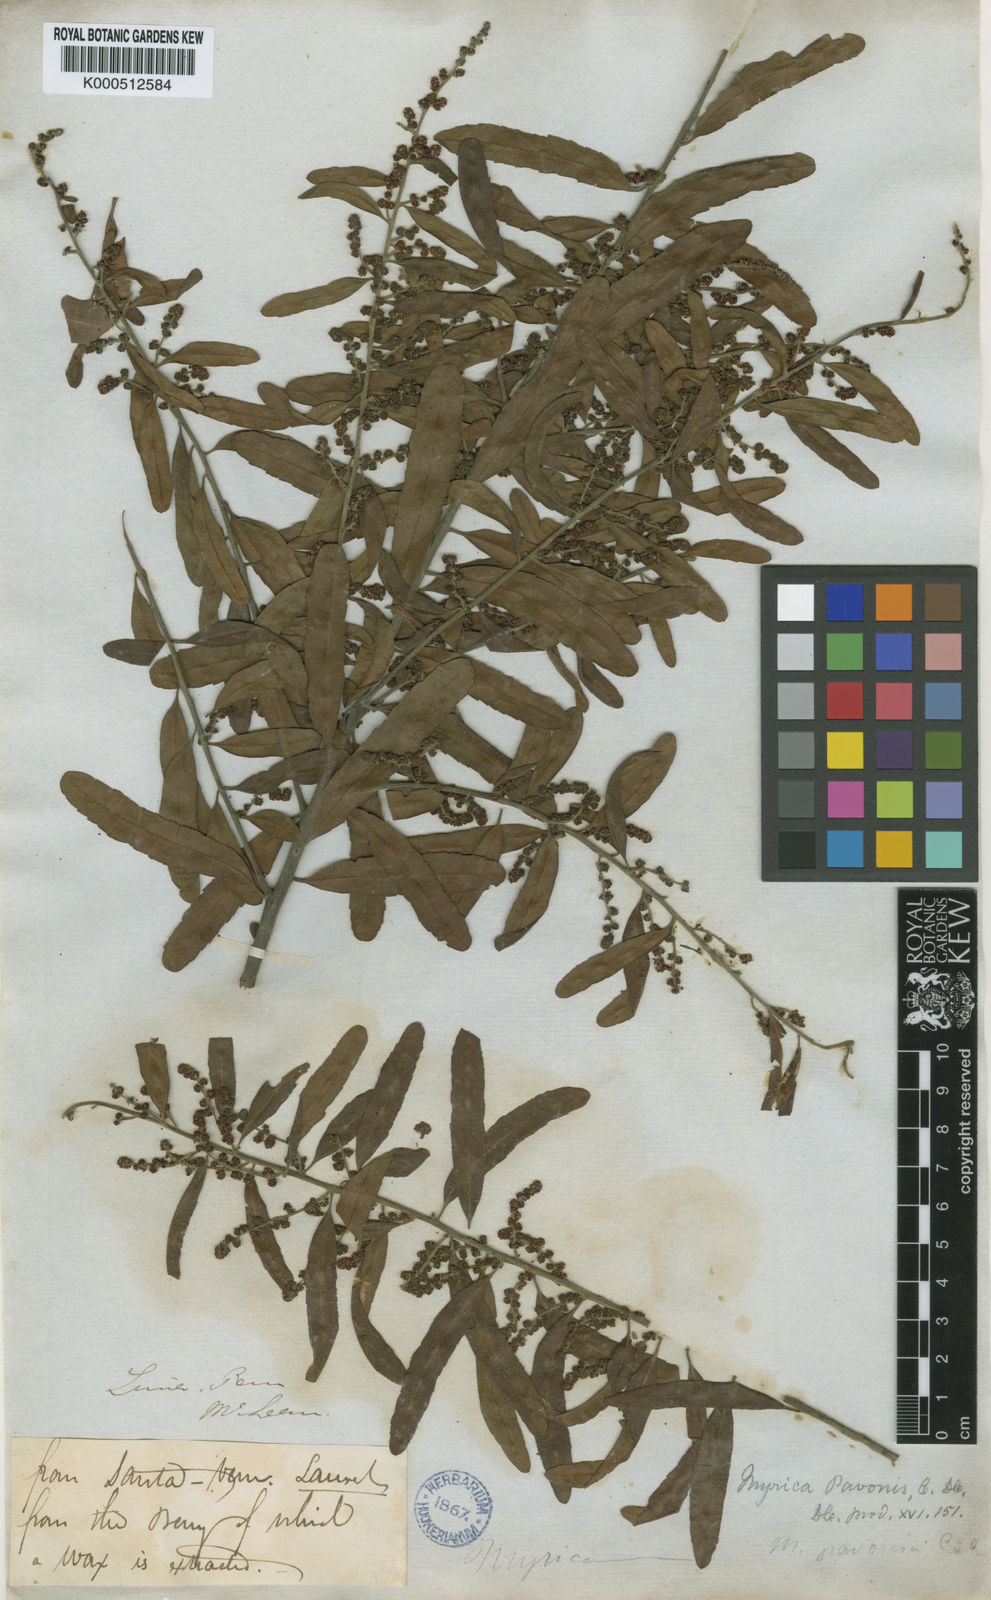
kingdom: Plantae
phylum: Tracheophyta
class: Magnoliopsida
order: Fagales
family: Myricaceae
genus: Morella
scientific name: Morella pavonis
